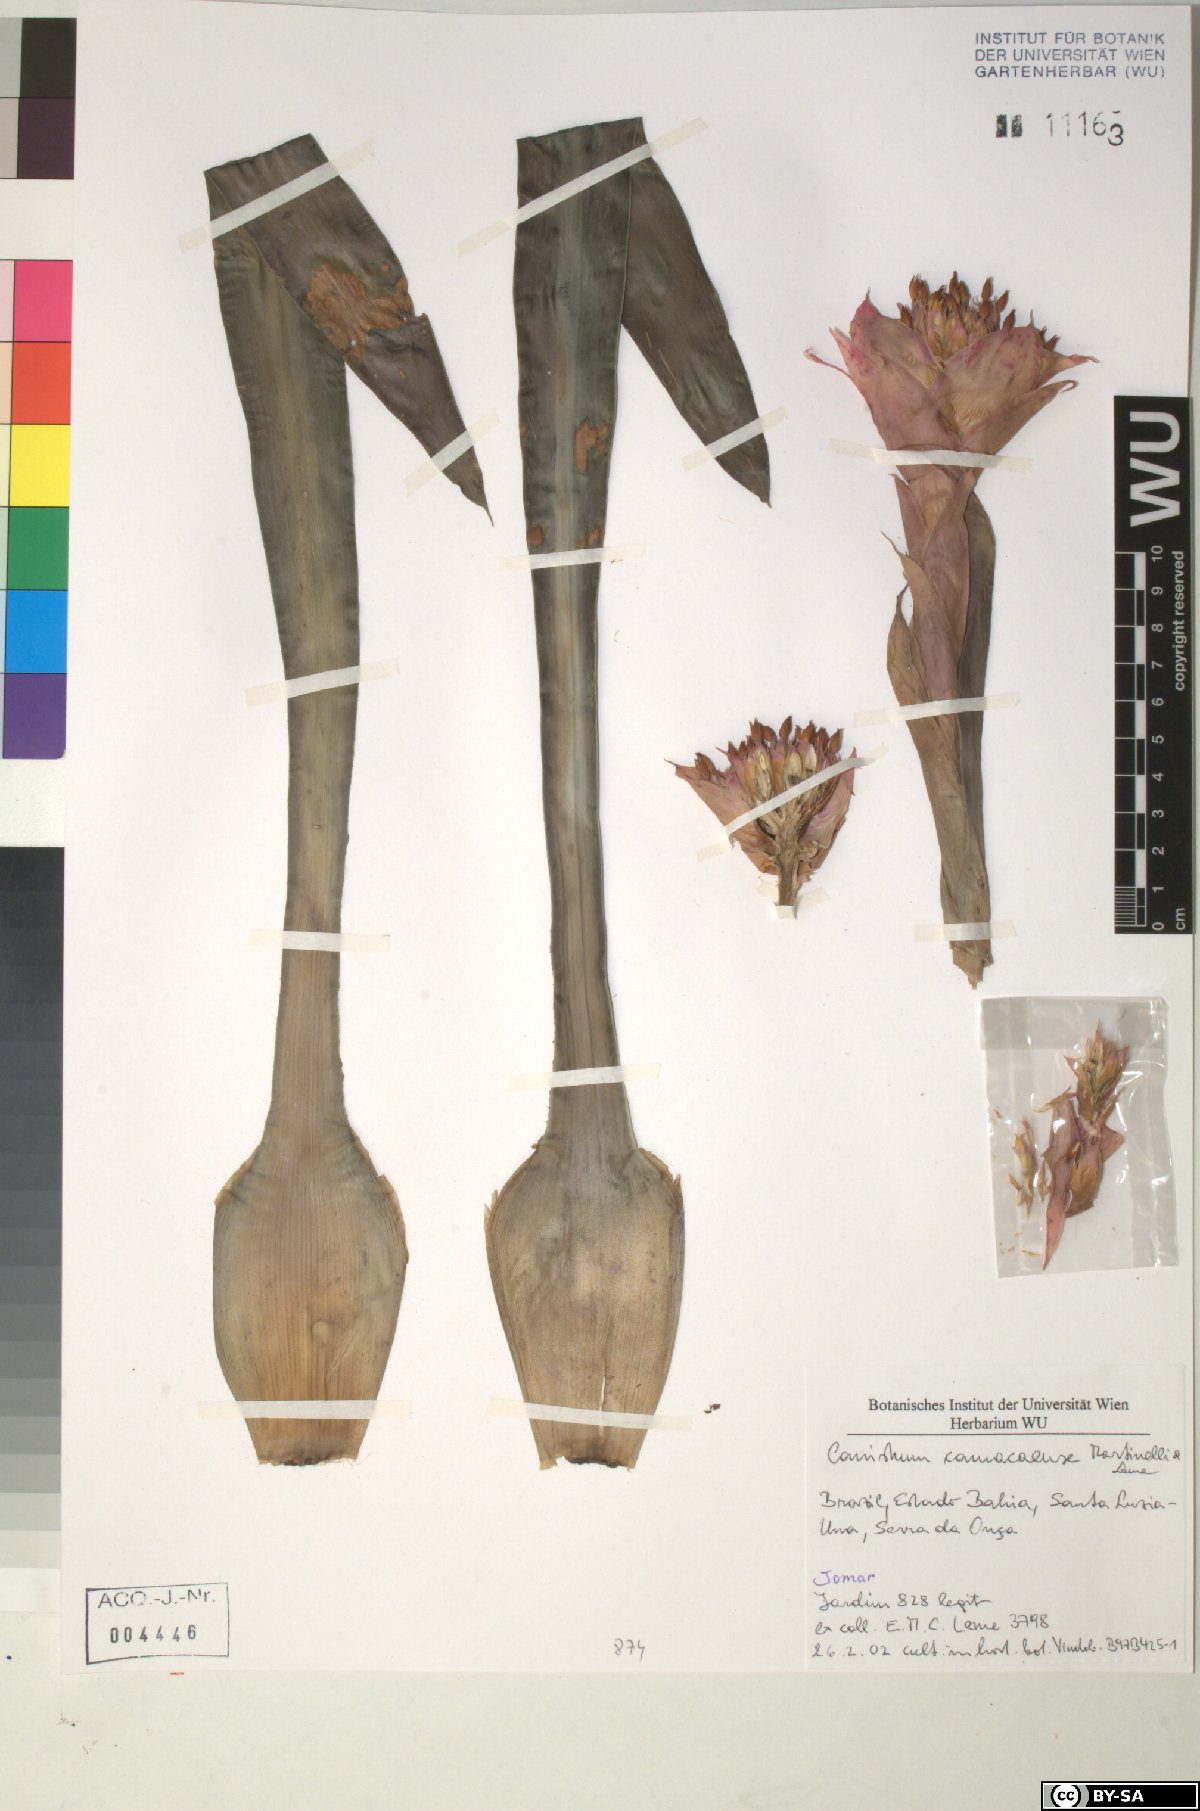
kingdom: Plantae
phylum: Tracheophyta
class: Liliopsida
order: Poales
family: Bromeliaceae
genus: Canistrum
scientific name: Canistrum
